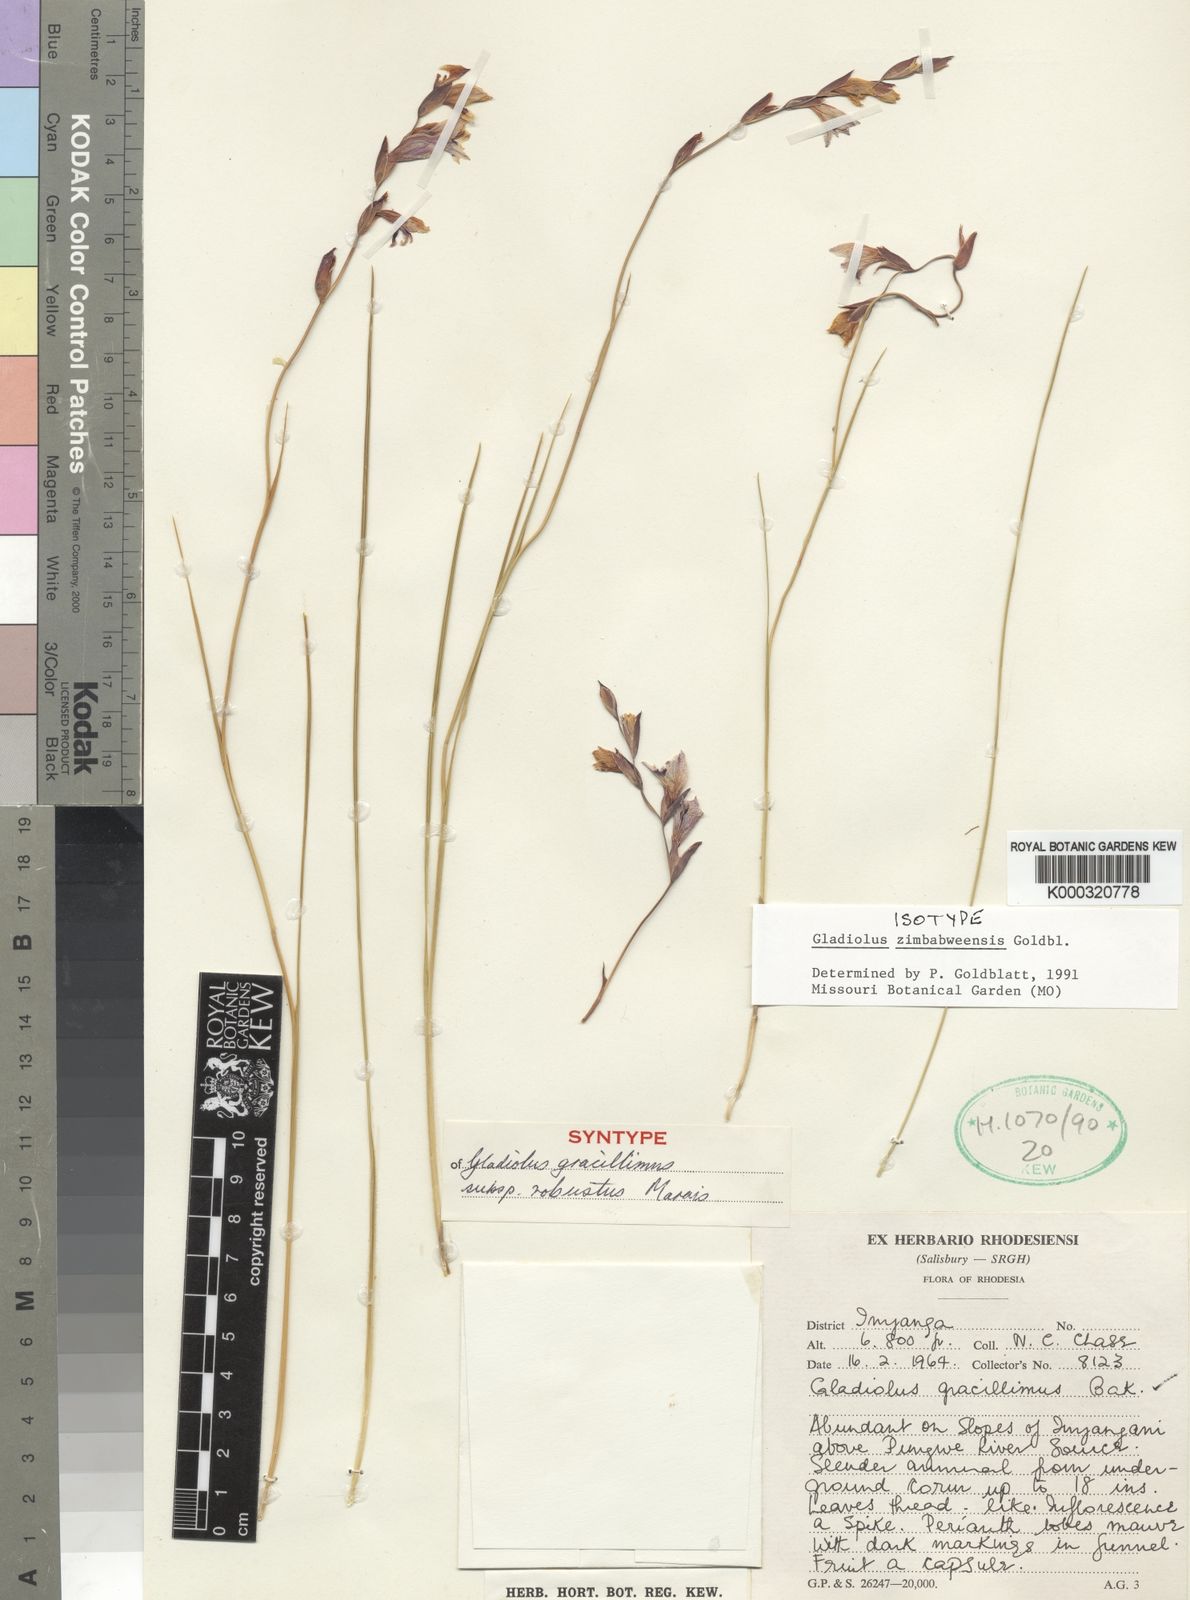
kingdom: Plantae
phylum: Tracheophyta
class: Liliopsida
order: Asparagales
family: Iridaceae
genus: Gladiolus
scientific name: Gladiolus zimbabweensis
